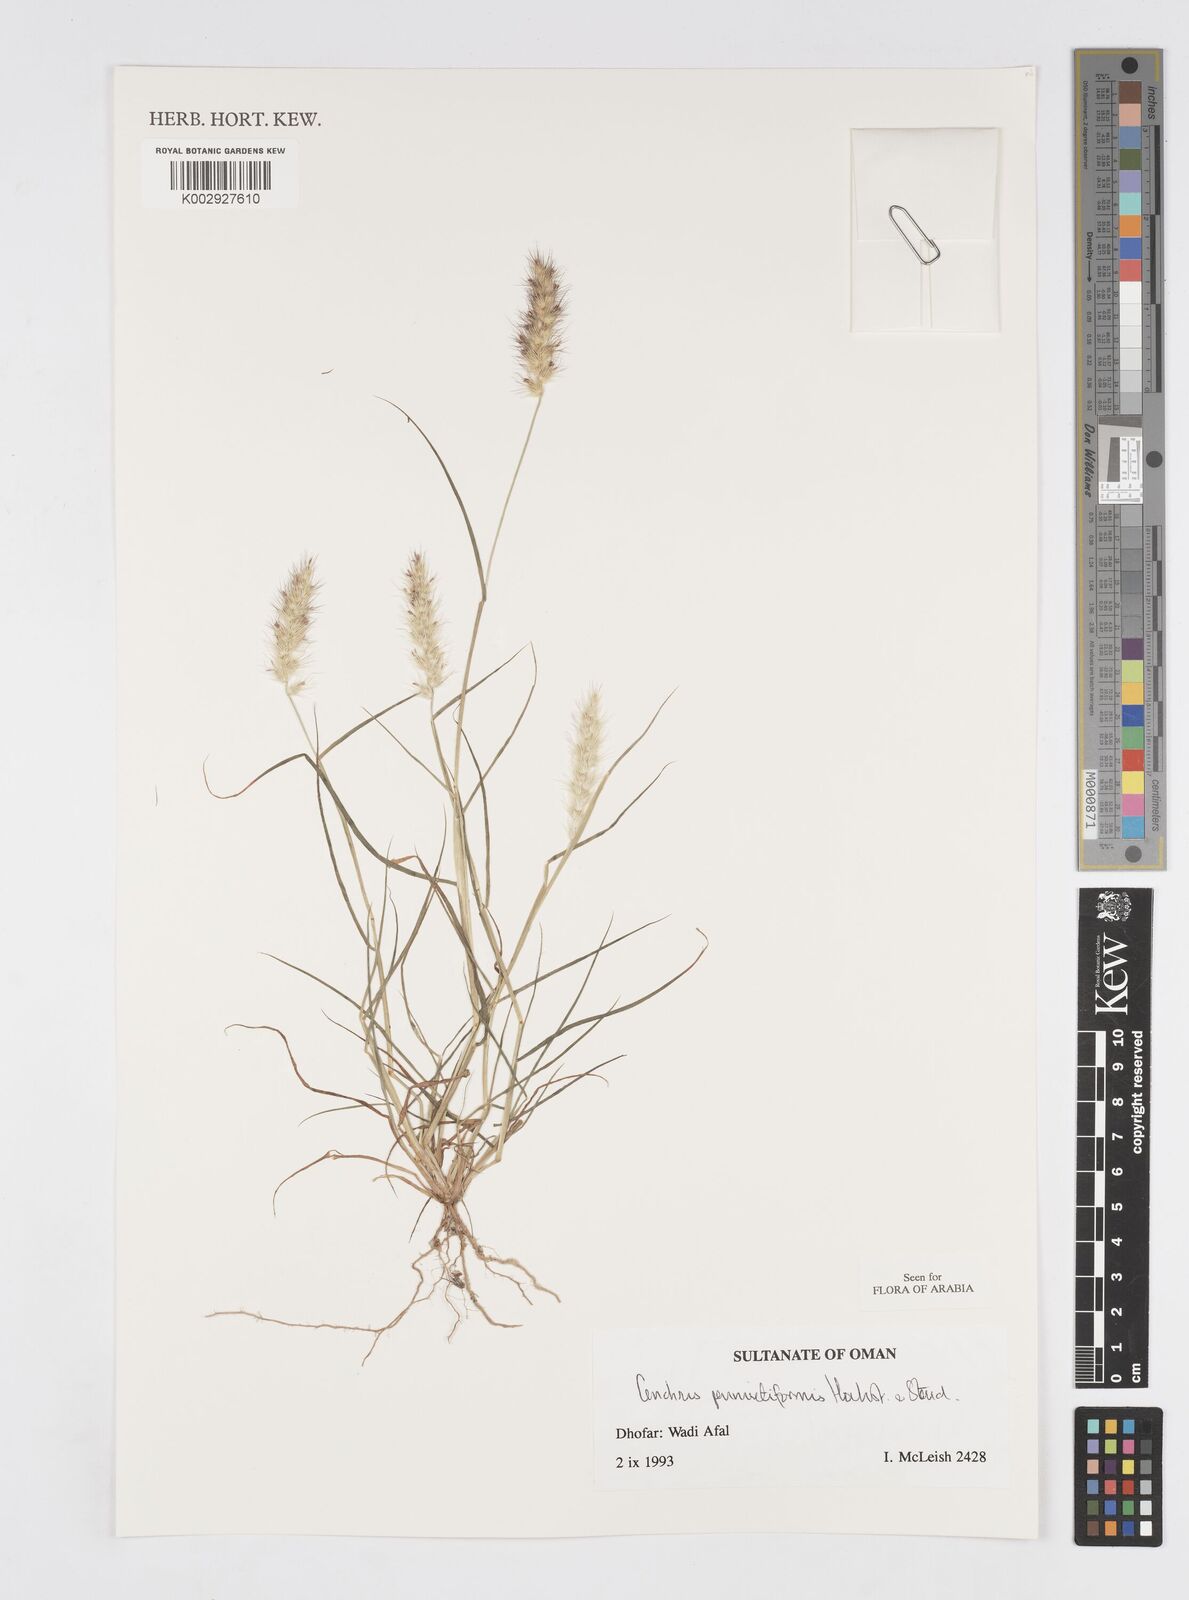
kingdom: Plantae
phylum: Tracheophyta
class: Liliopsida
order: Poales
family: Poaceae
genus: Cenchrus
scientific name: Cenchrus pennisetiformis
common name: Cloncurry
